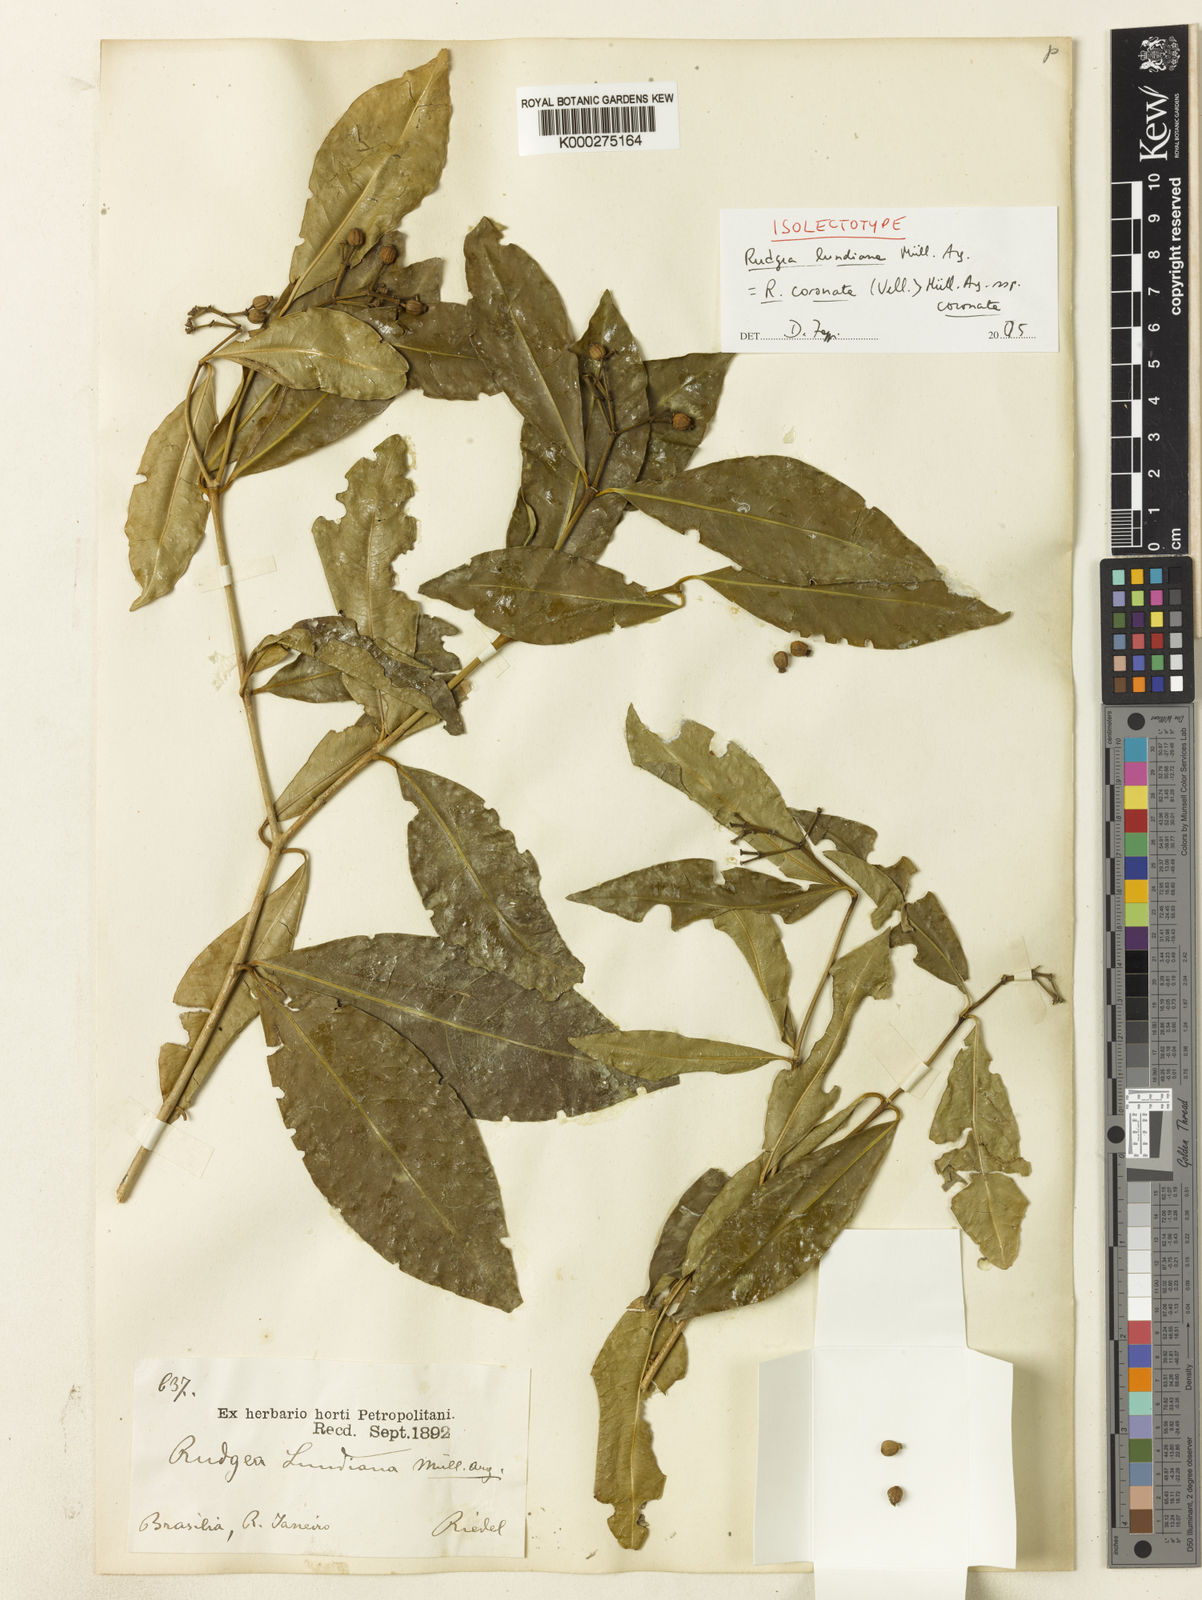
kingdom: Plantae
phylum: Tracheophyta
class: Magnoliopsida
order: Gentianales
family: Rubiaceae
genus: Rudgea
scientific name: Rudgea
